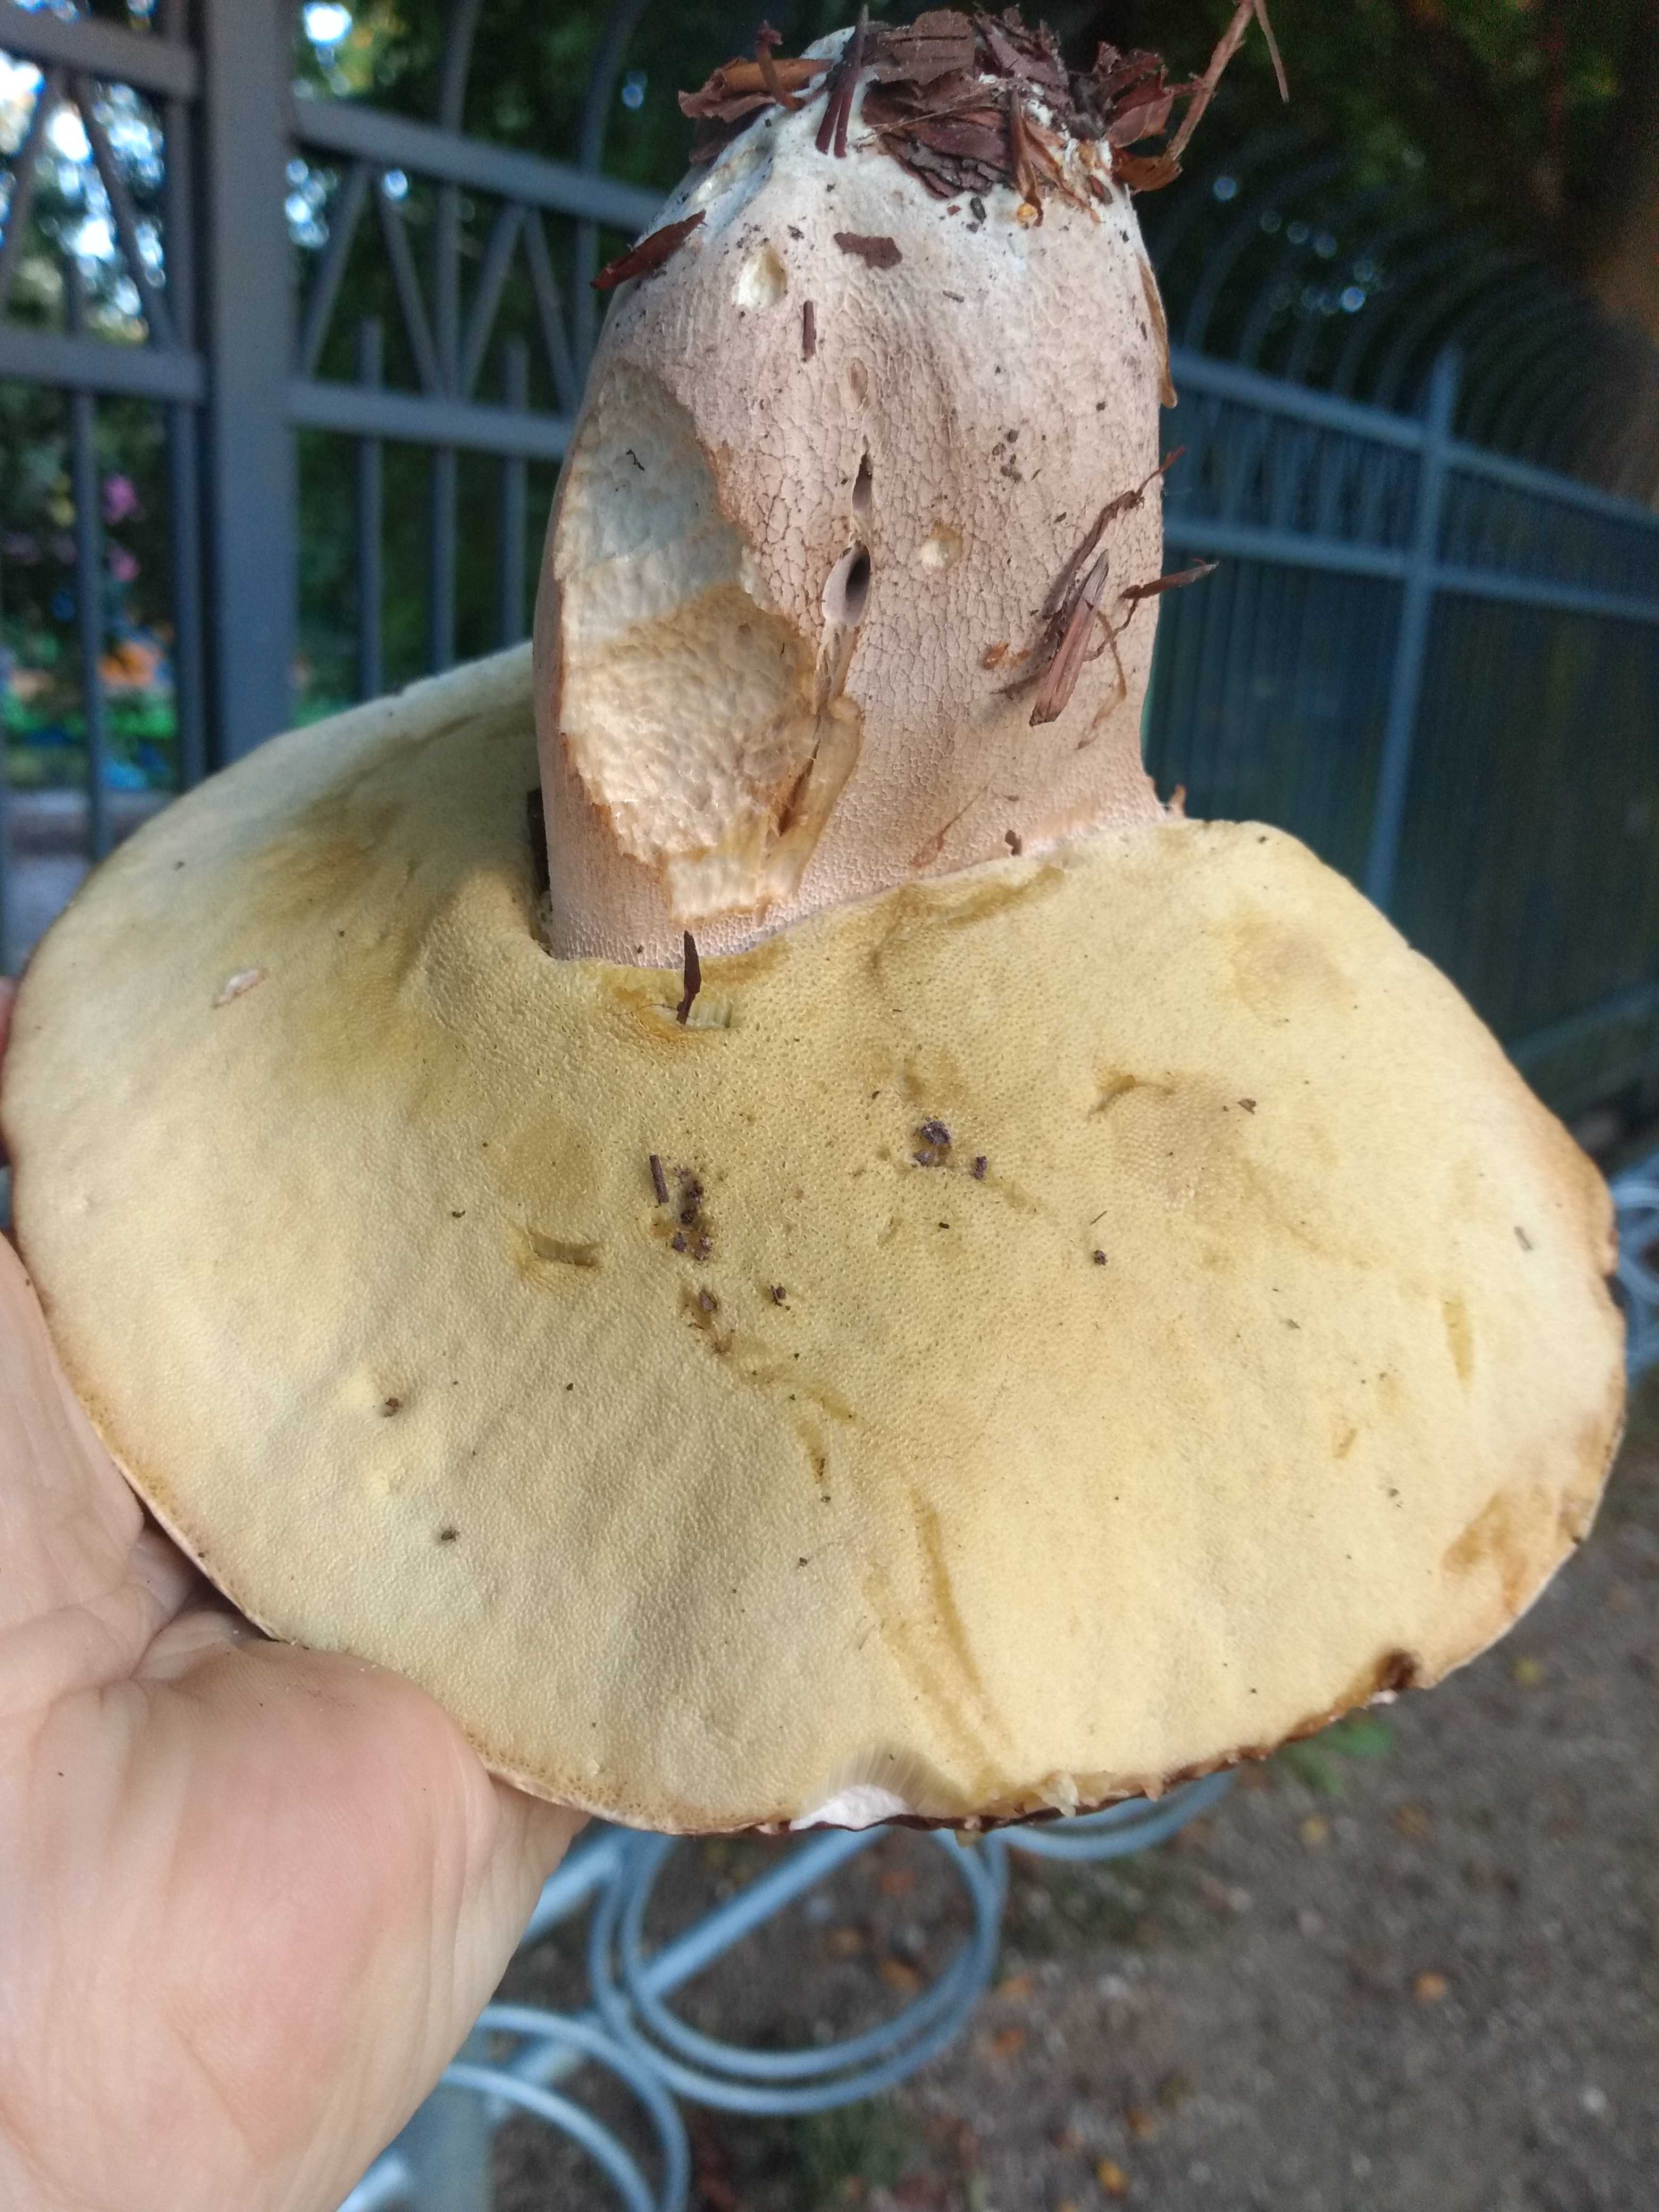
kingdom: Fungi
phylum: Basidiomycota
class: Agaricomycetes
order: Boletales
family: Boletaceae
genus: Boletus
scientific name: Boletus reticulatus
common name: sommer-rørhat
